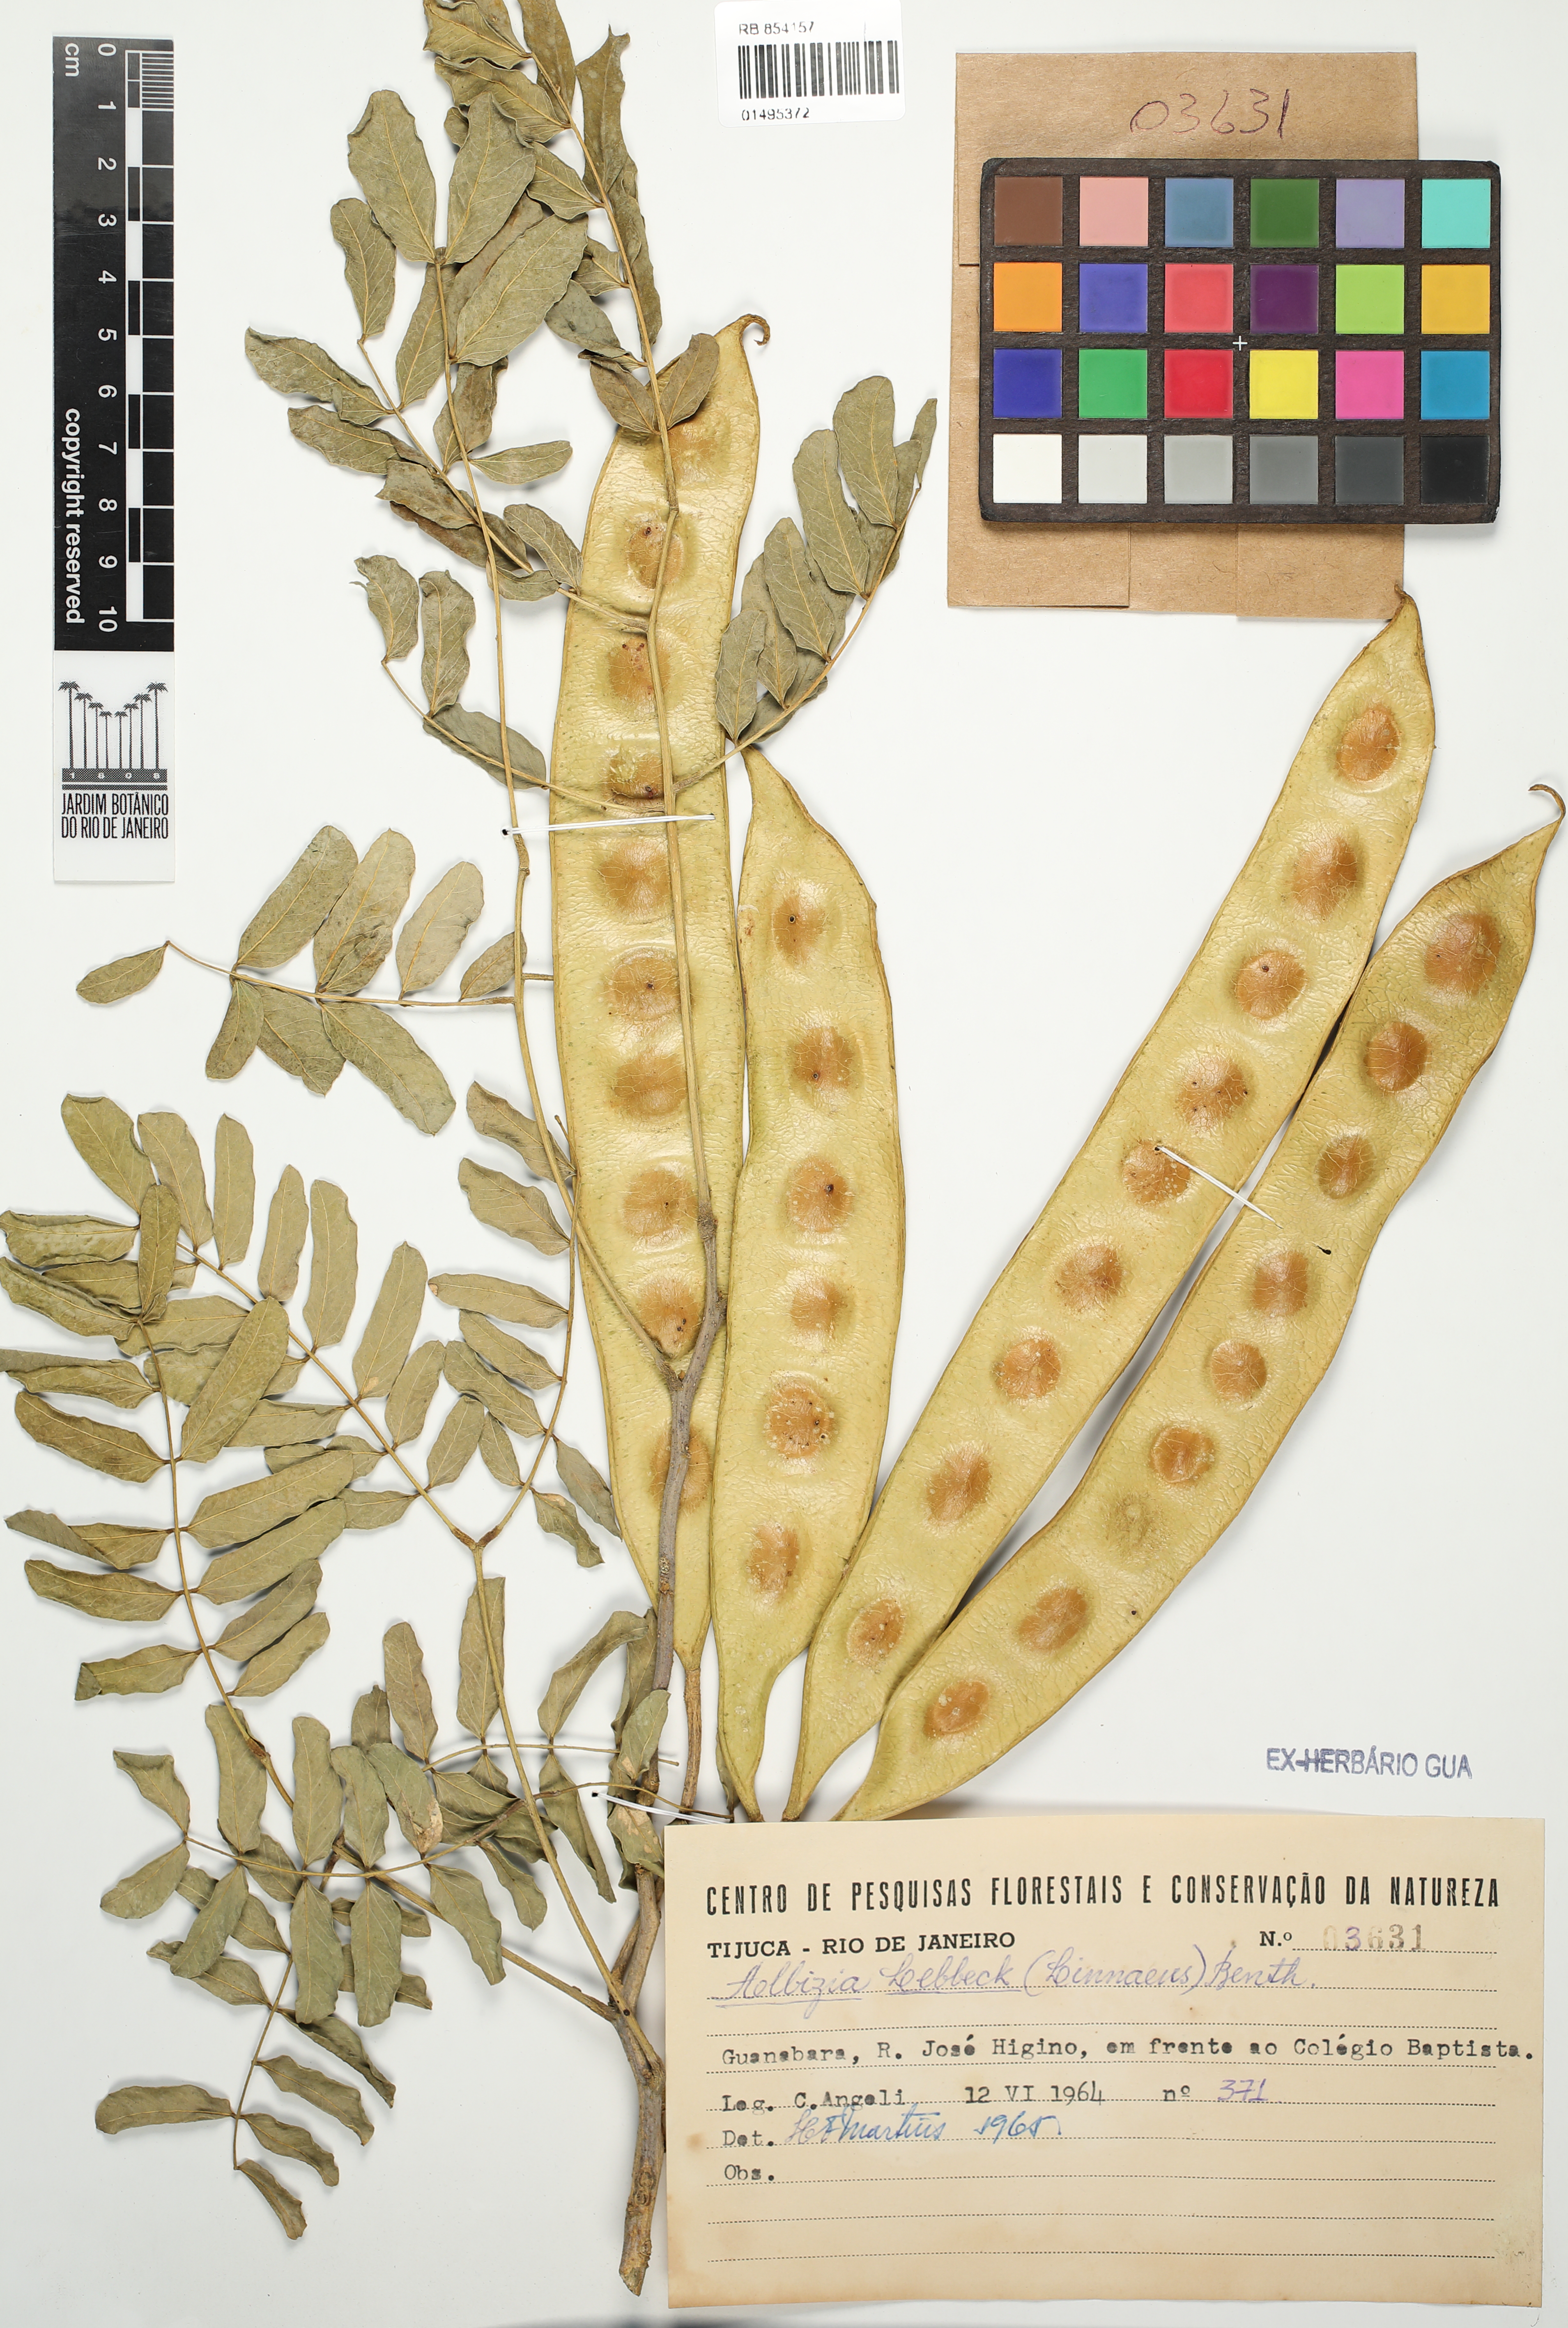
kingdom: Plantae
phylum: Tracheophyta
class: Magnoliopsida
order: Fabales
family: Fabaceae
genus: Albizia
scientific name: Albizia lebbeck
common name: Woman's tongue
